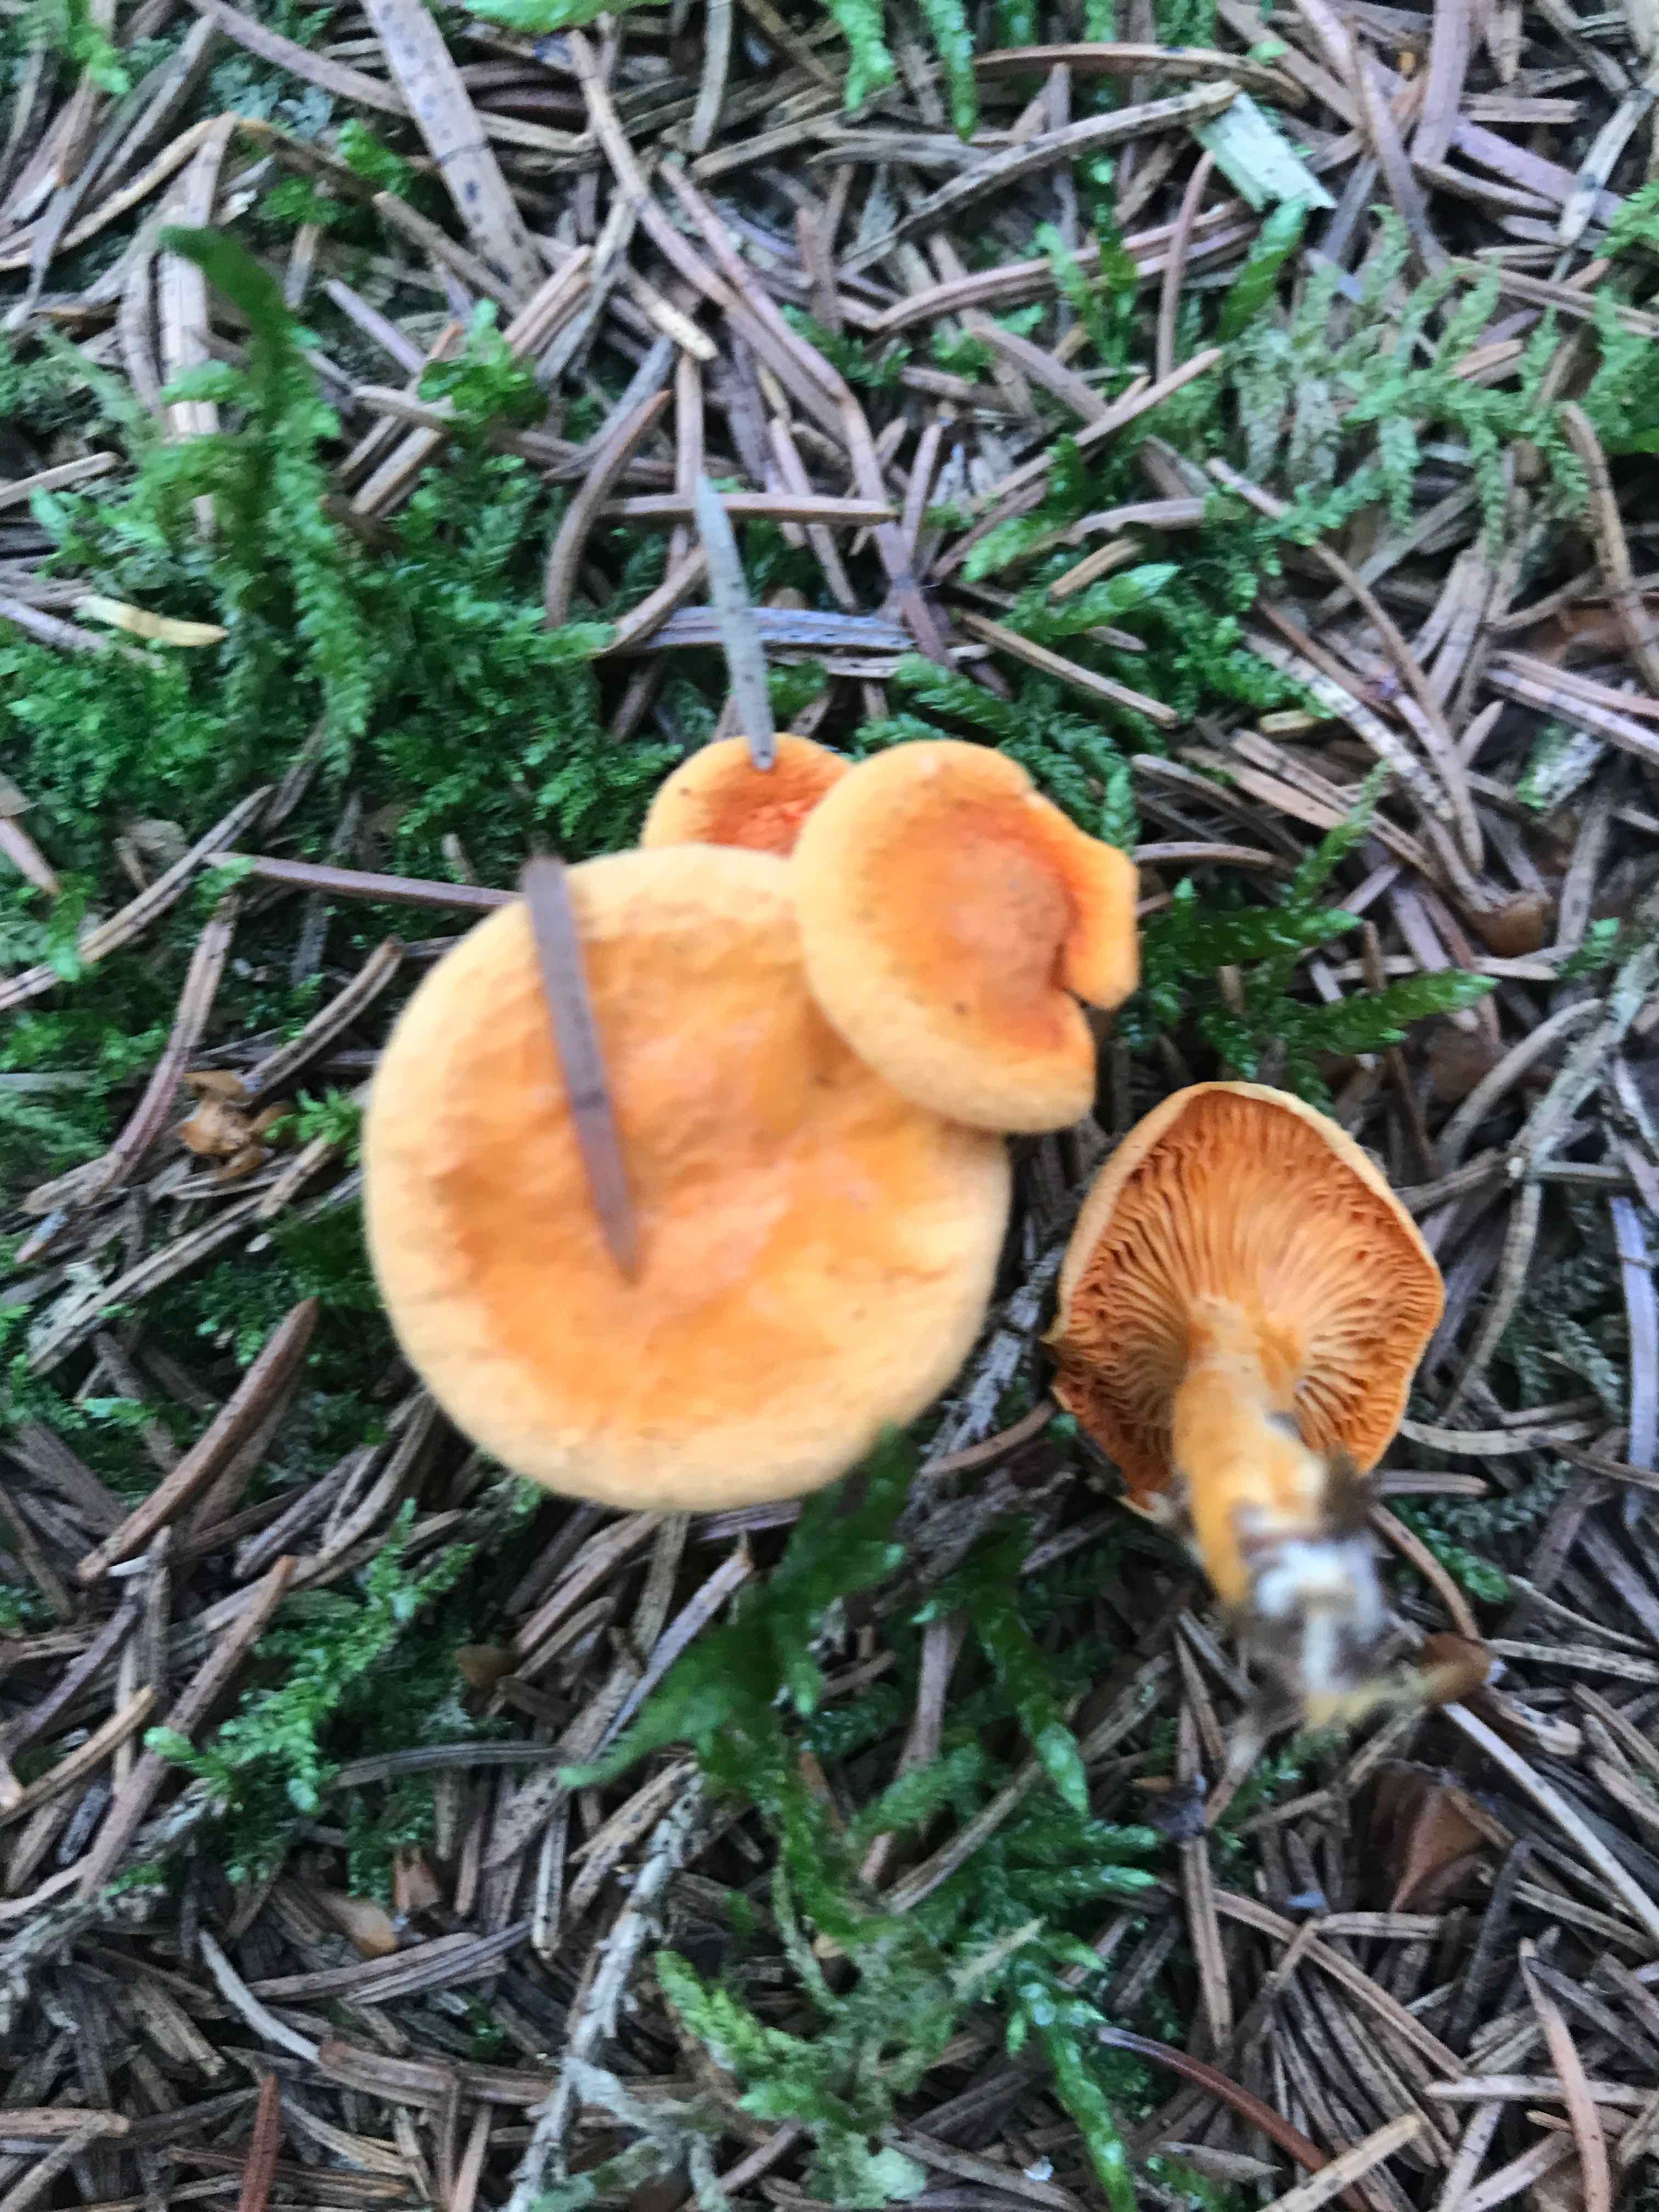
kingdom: Fungi
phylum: Basidiomycota
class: Agaricomycetes
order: Boletales
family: Hygrophoropsidaceae
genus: Hygrophoropsis
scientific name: Hygrophoropsis aurantiaca
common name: almindelig orangekantarel
